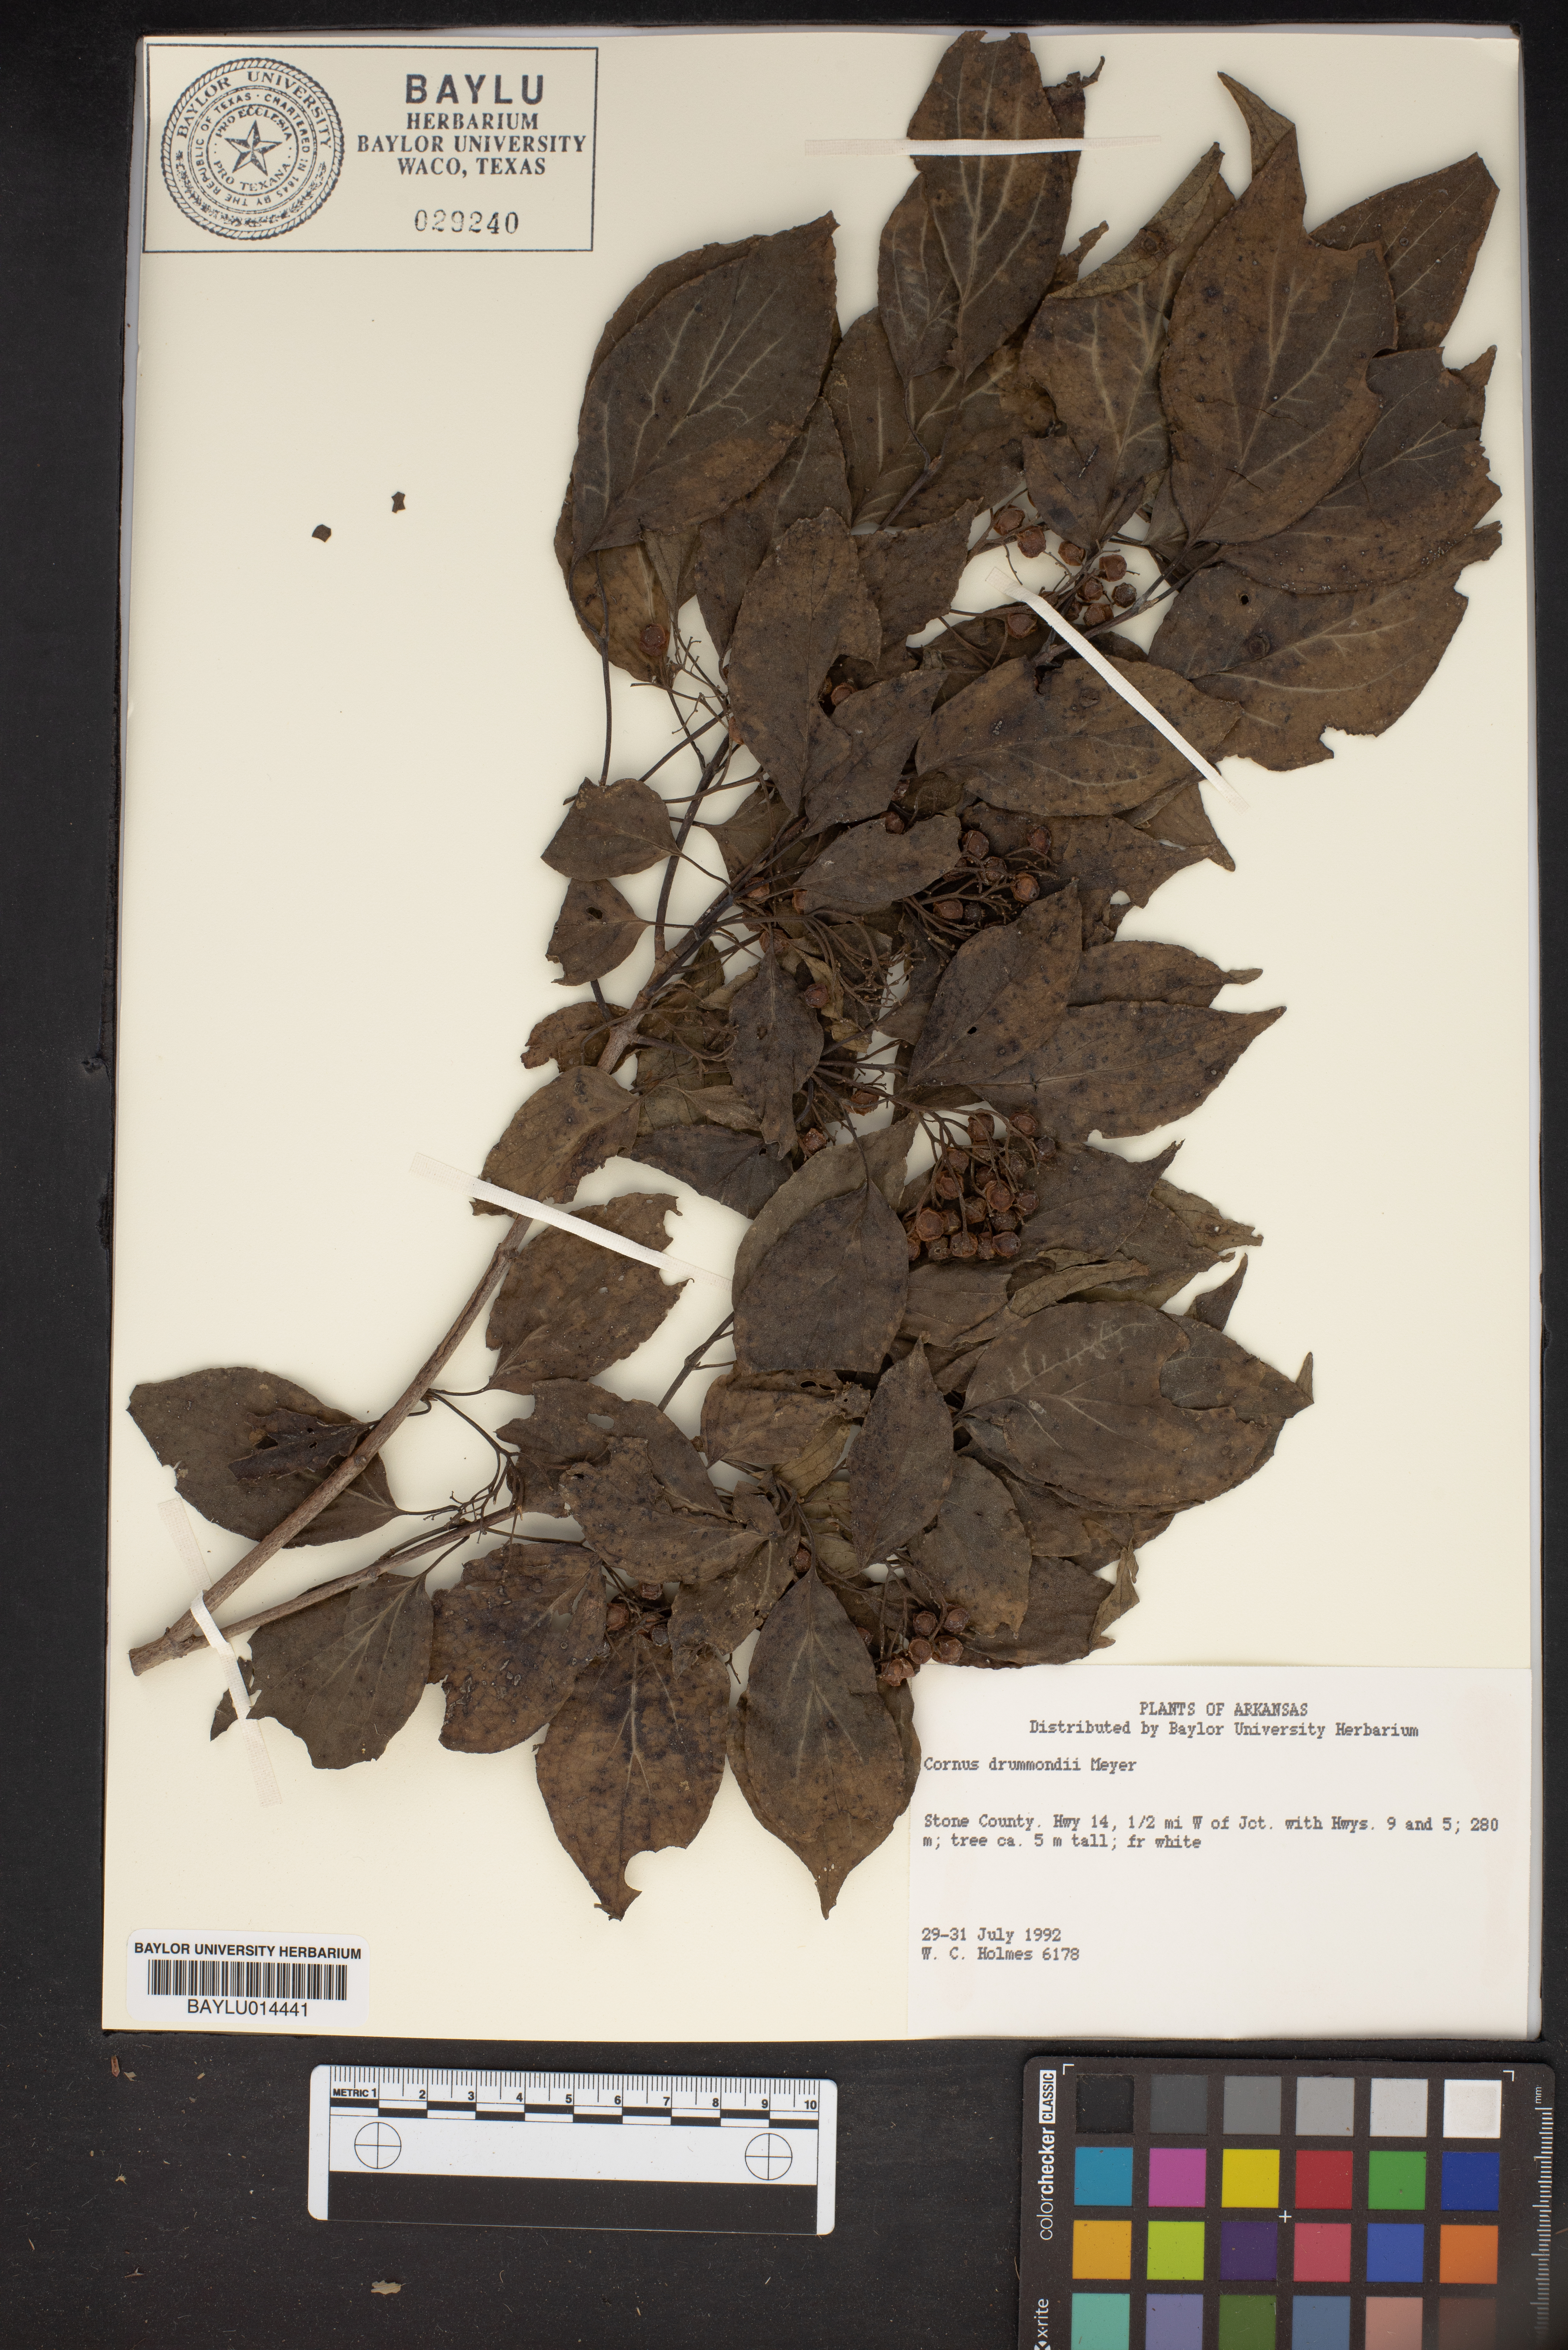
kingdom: Plantae
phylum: Tracheophyta
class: Magnoliopsida
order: Cornales
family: Cornaceae
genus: Cornus
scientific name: Cornus drummondii
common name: Rough-leaf dogwood
